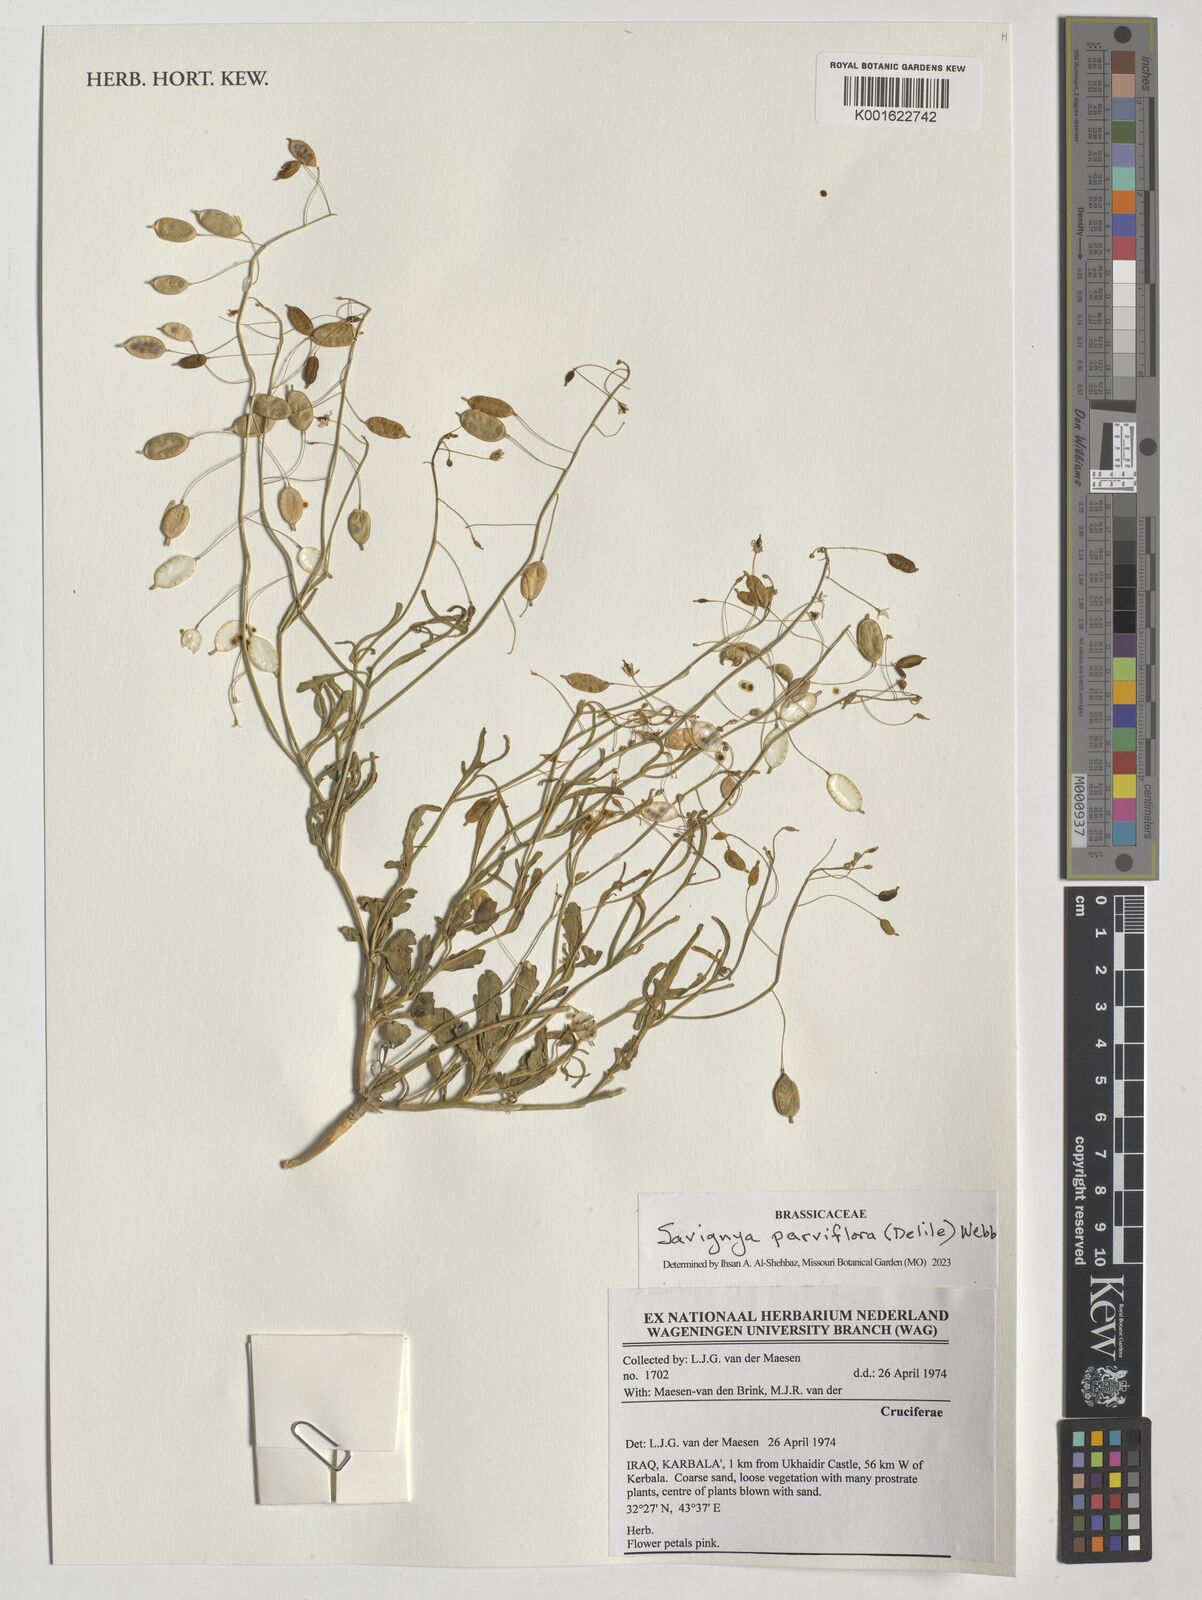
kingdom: Plantae
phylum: Tracheophyta
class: Magnoliopsida
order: Brassicales
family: Brassicaceae
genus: Savignya
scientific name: Savignya parviflora
